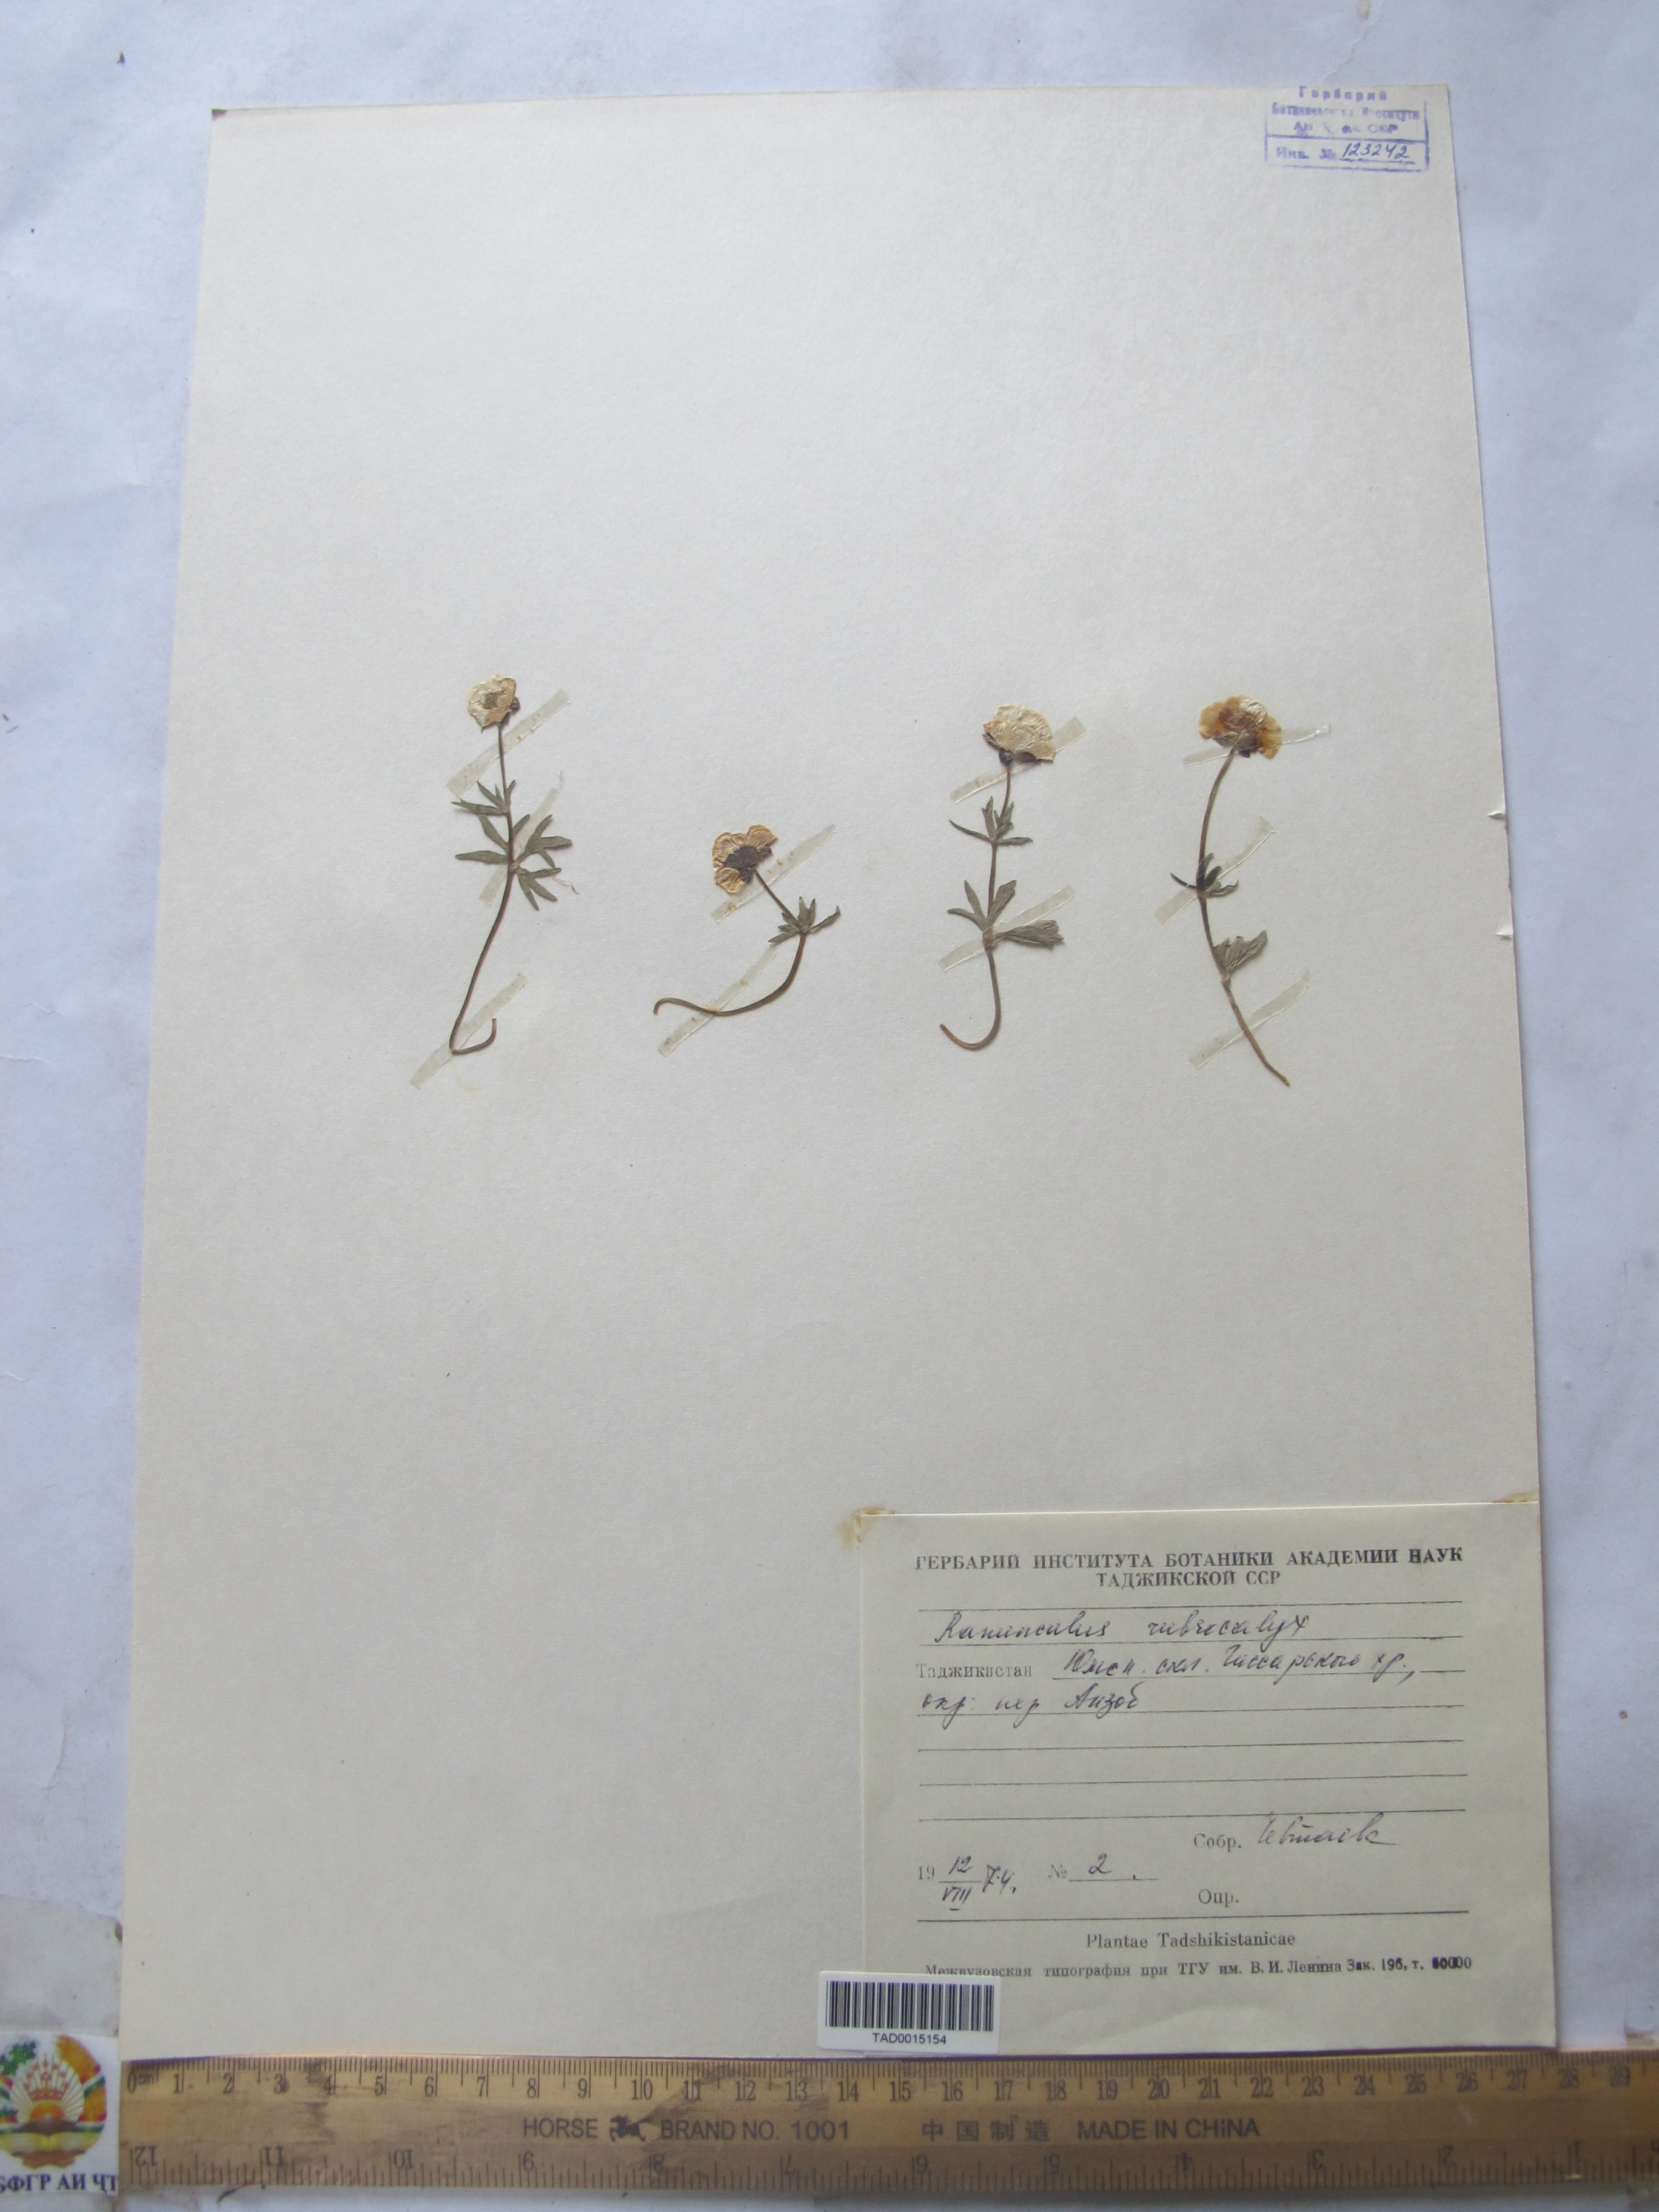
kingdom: Plantae
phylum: Tracheophyta
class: Magnoliopsida
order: Ranunculales
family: Ranunculaceae
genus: Ranunculus
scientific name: Ranunculus rubrocalyx
